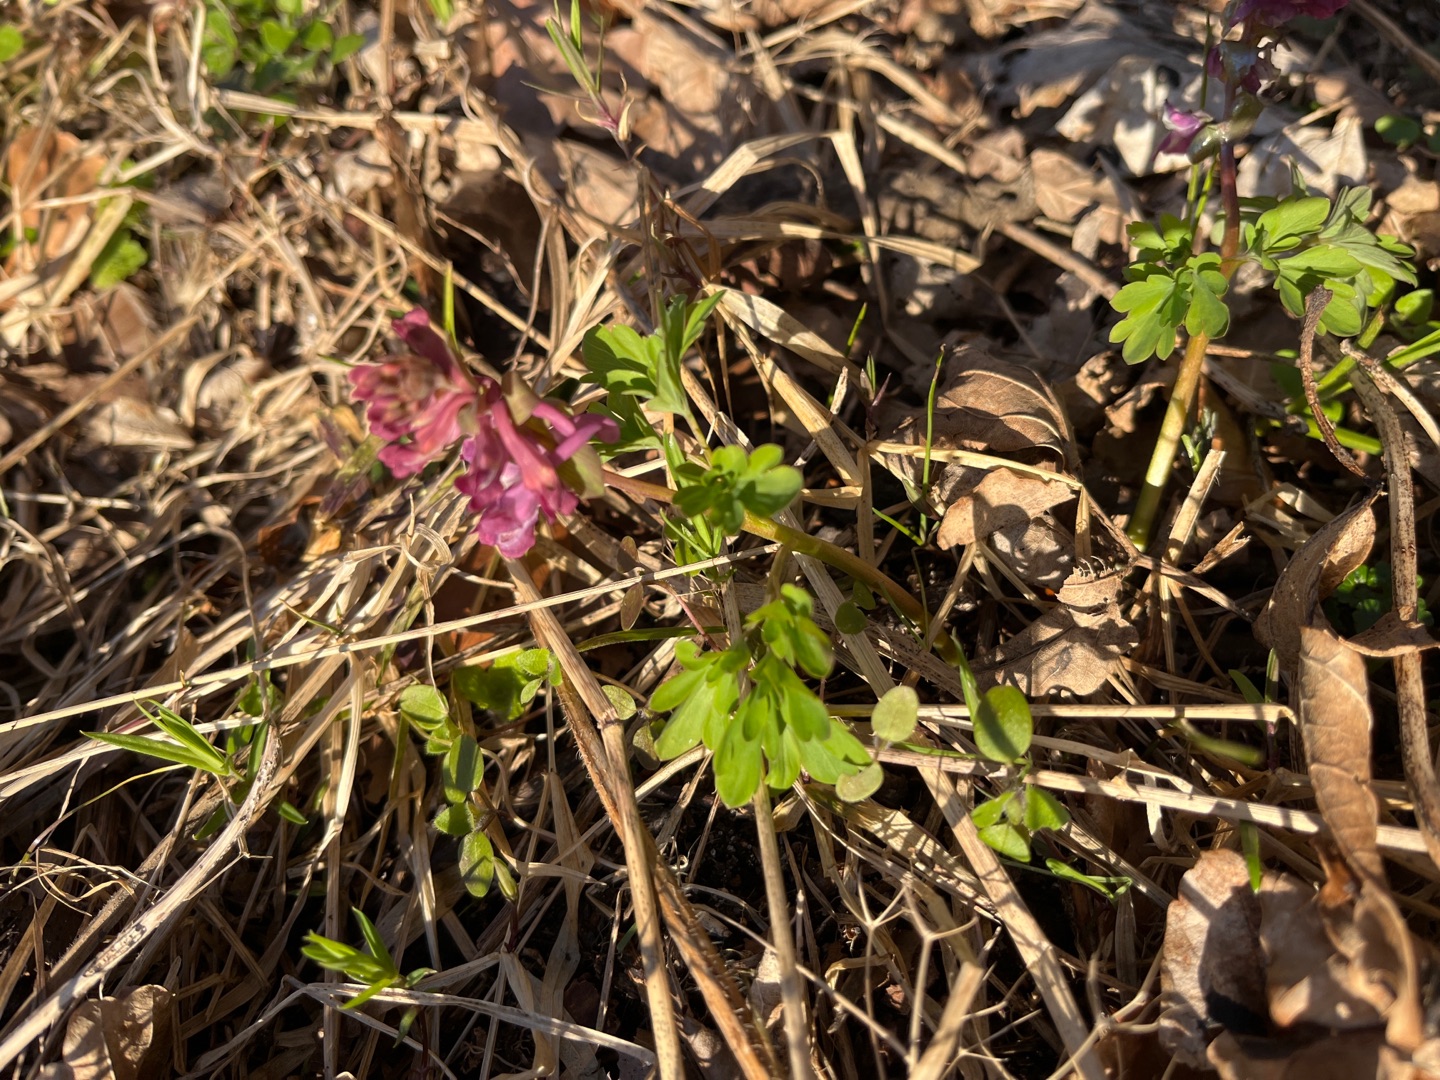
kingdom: Plantae
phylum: Tracheophyta
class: Magnoliopsida
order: Ranunculales
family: Papaveraceae
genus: Corydalis
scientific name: Corydalis cava
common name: Hulrodet lærkespore
